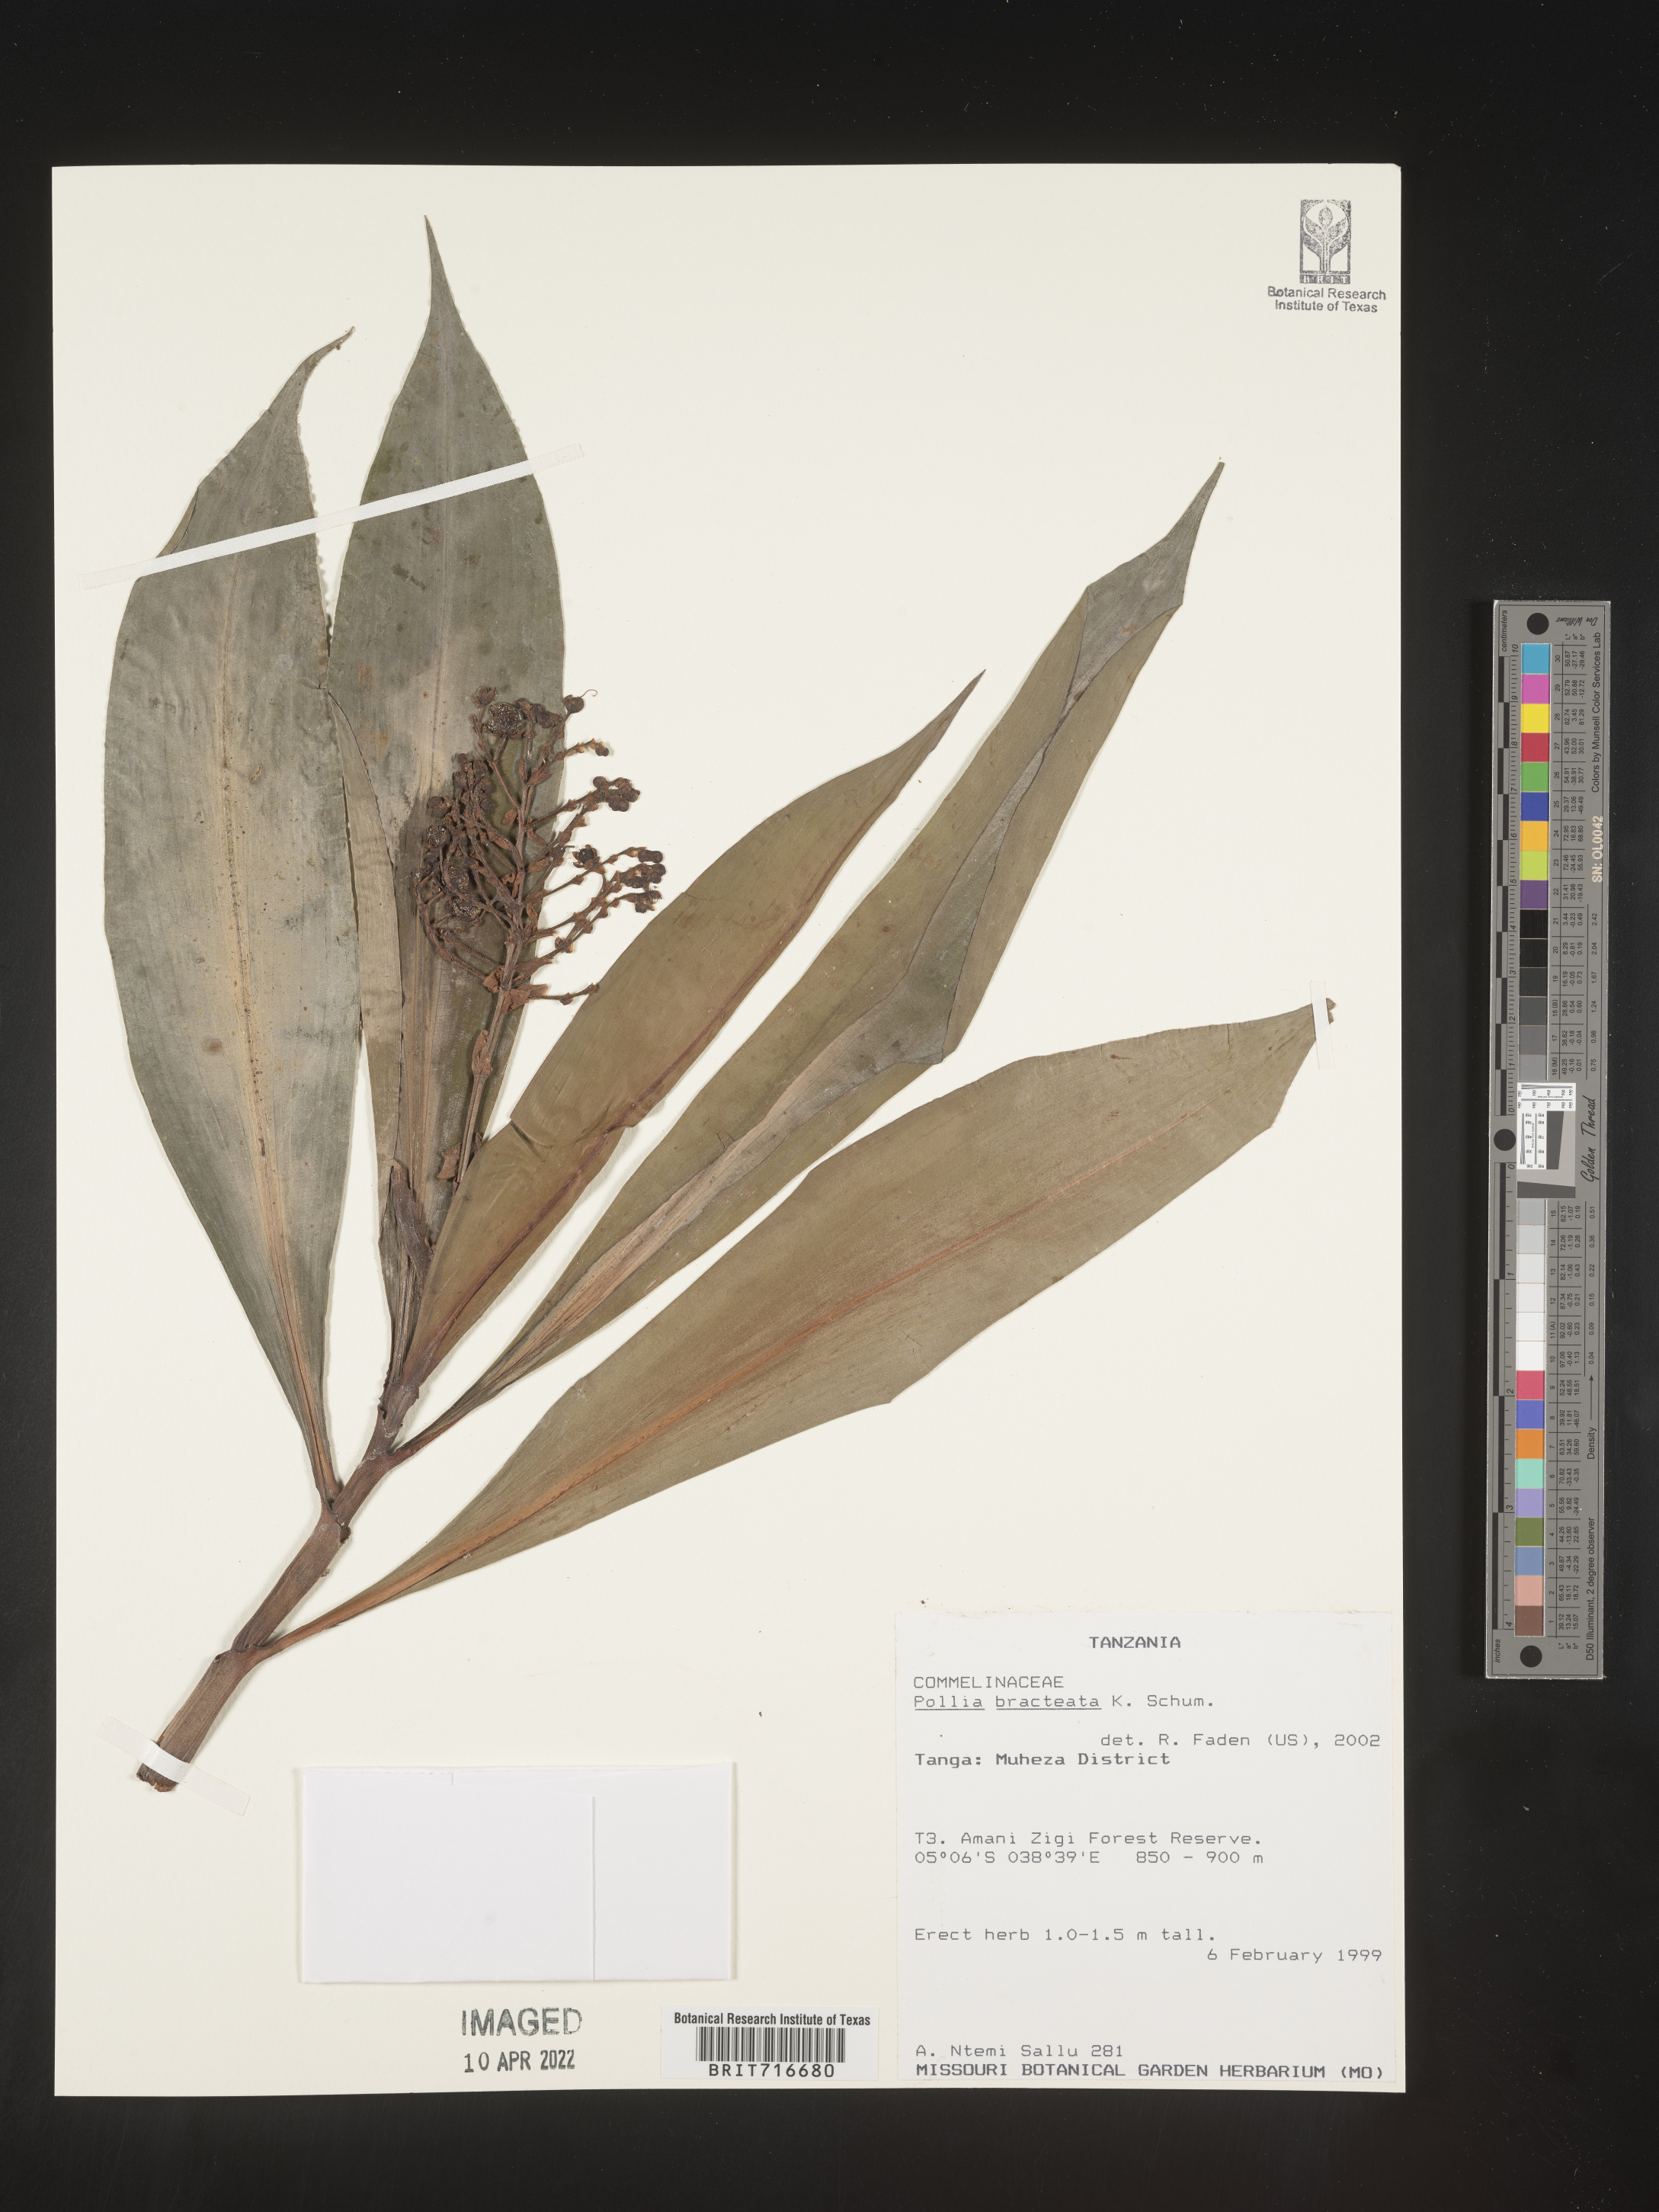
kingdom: Plantae
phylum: Tracheophyta
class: Liliopsida
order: Commelinales
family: Commelinaceae
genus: Pollia
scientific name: Pollia
